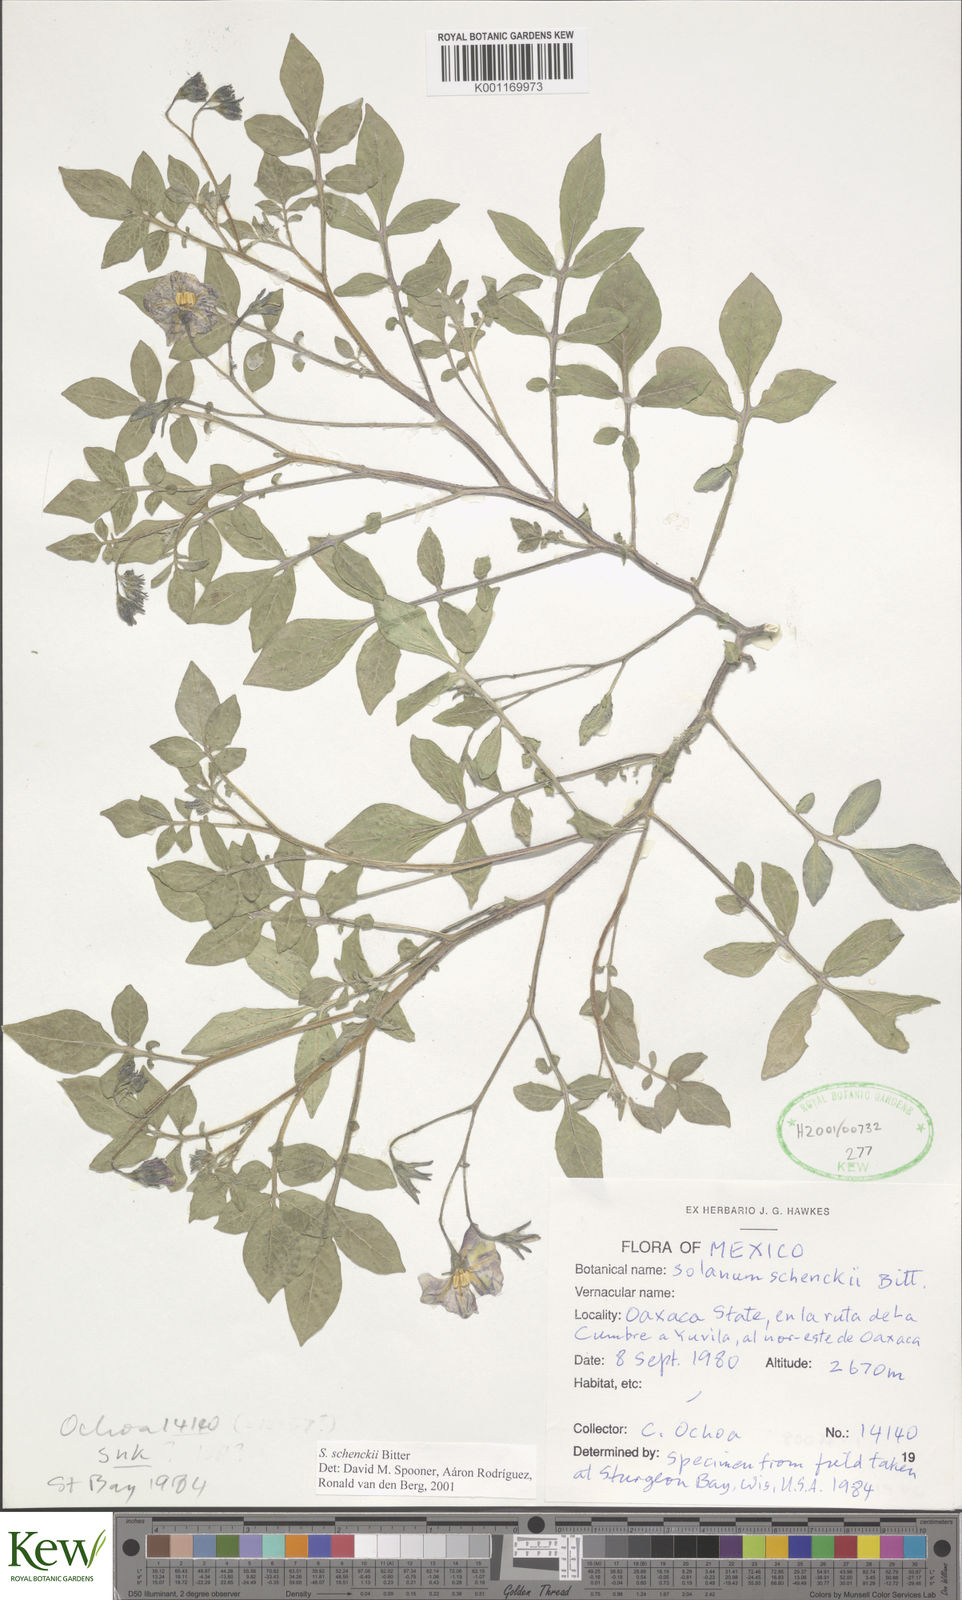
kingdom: Plantae
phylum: Tracheophyta
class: Magnoliopsida
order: Solanales
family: Solanaceae
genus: Solanum
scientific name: Solanum schenckii
